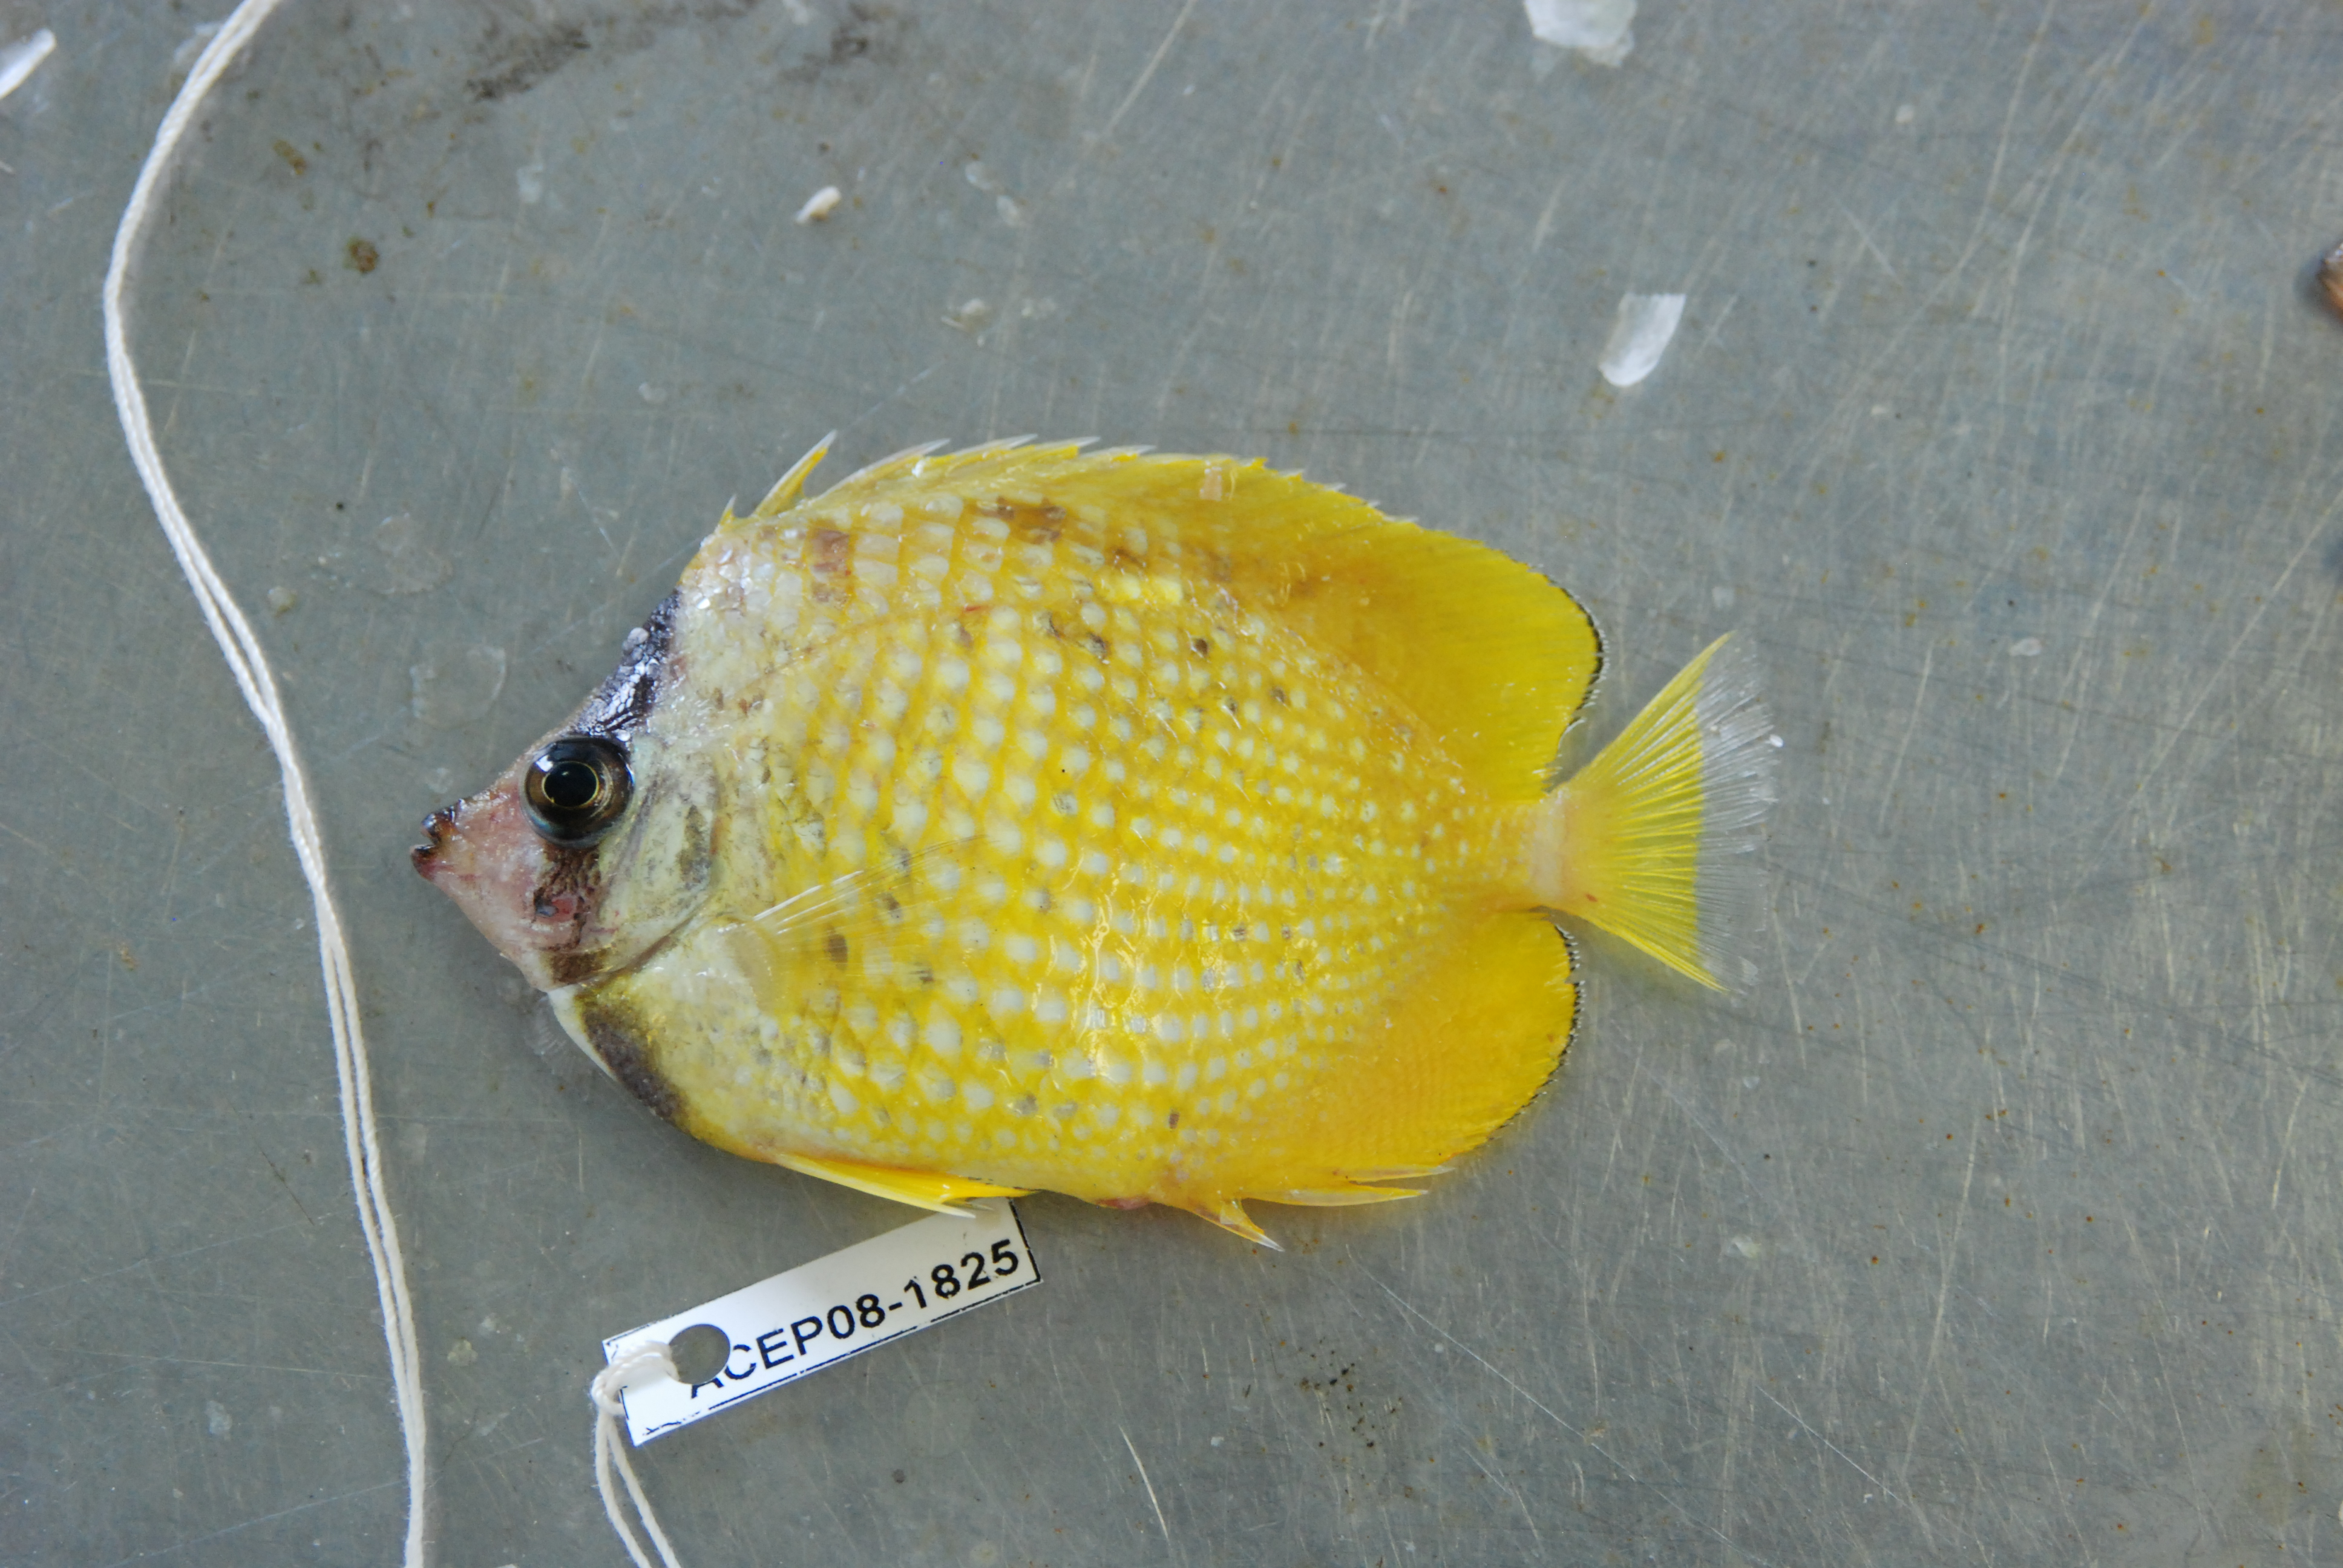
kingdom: Animalia
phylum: Chordata
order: Perciformes
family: Chaetodontidae
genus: Chaetodon
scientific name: Chaetodon kleinii
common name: Klein's butterflyfish
